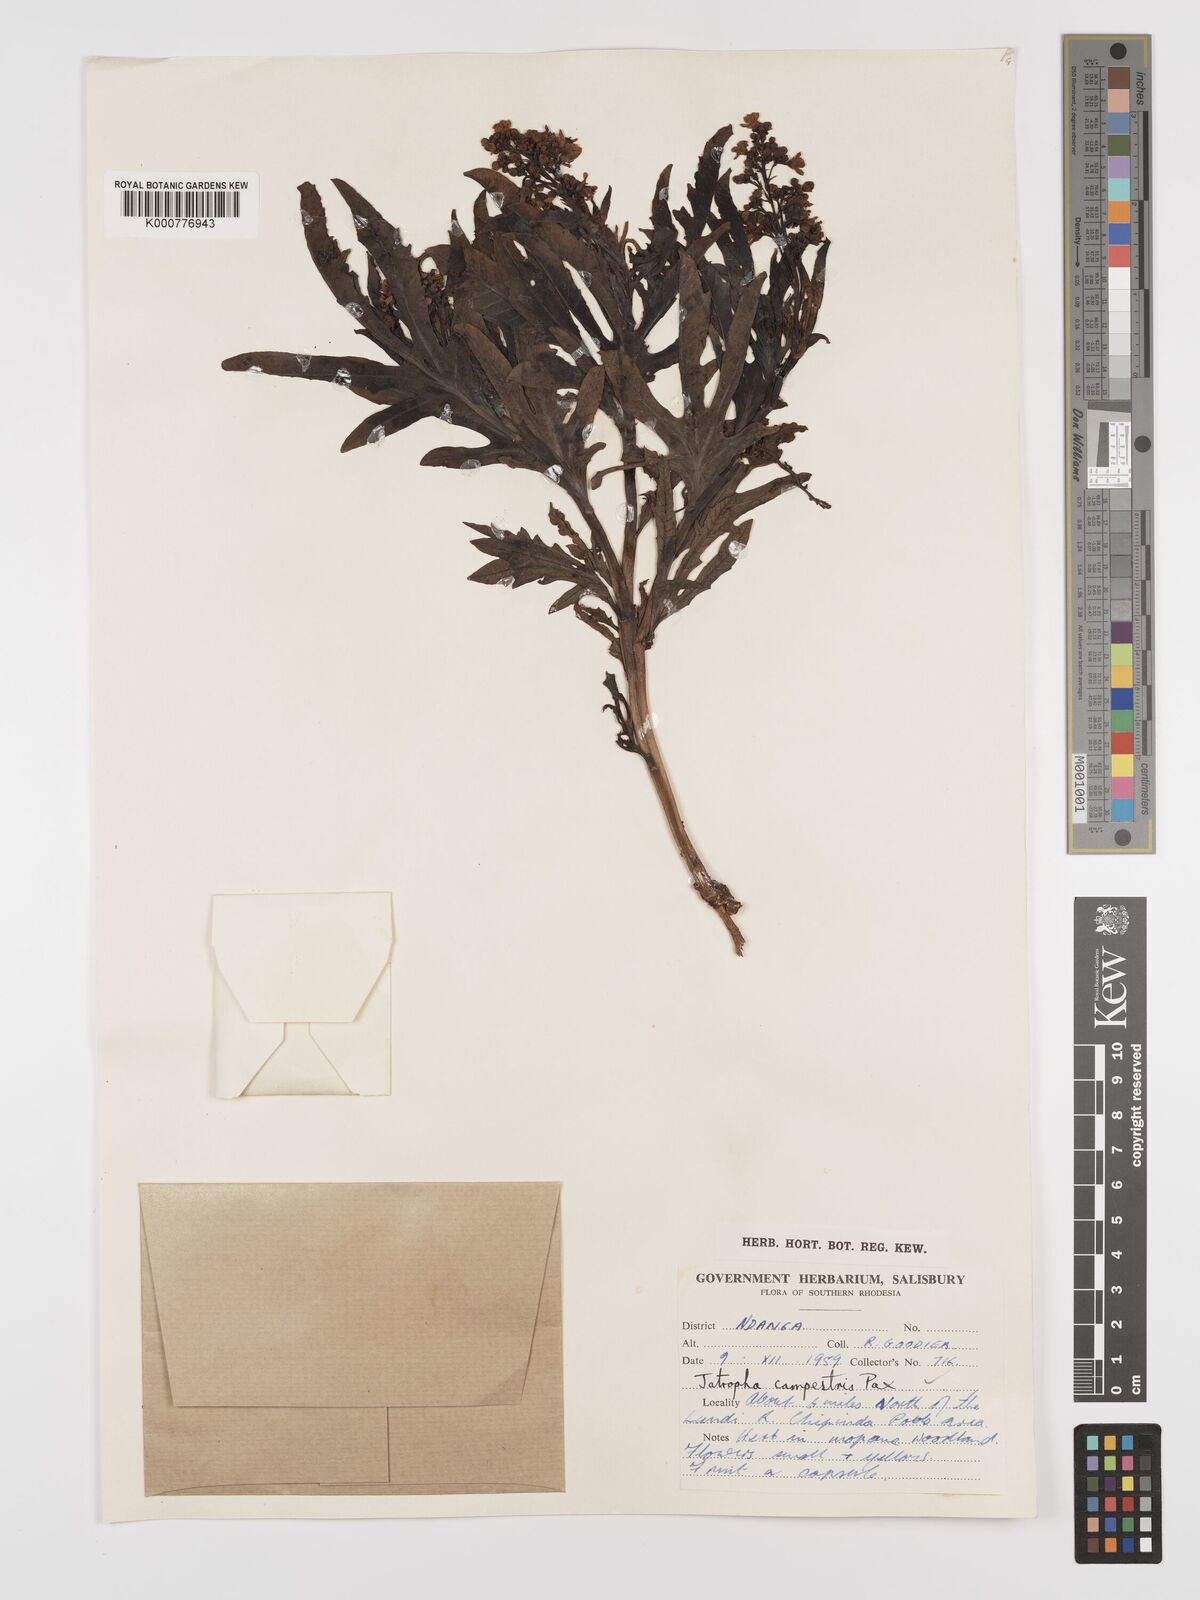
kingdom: Plantae
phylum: Tracheophyta
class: Magnoliopsida
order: Malpighiales
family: Euphorbiaceae
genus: Jatropha
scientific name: Jatropha campestris
